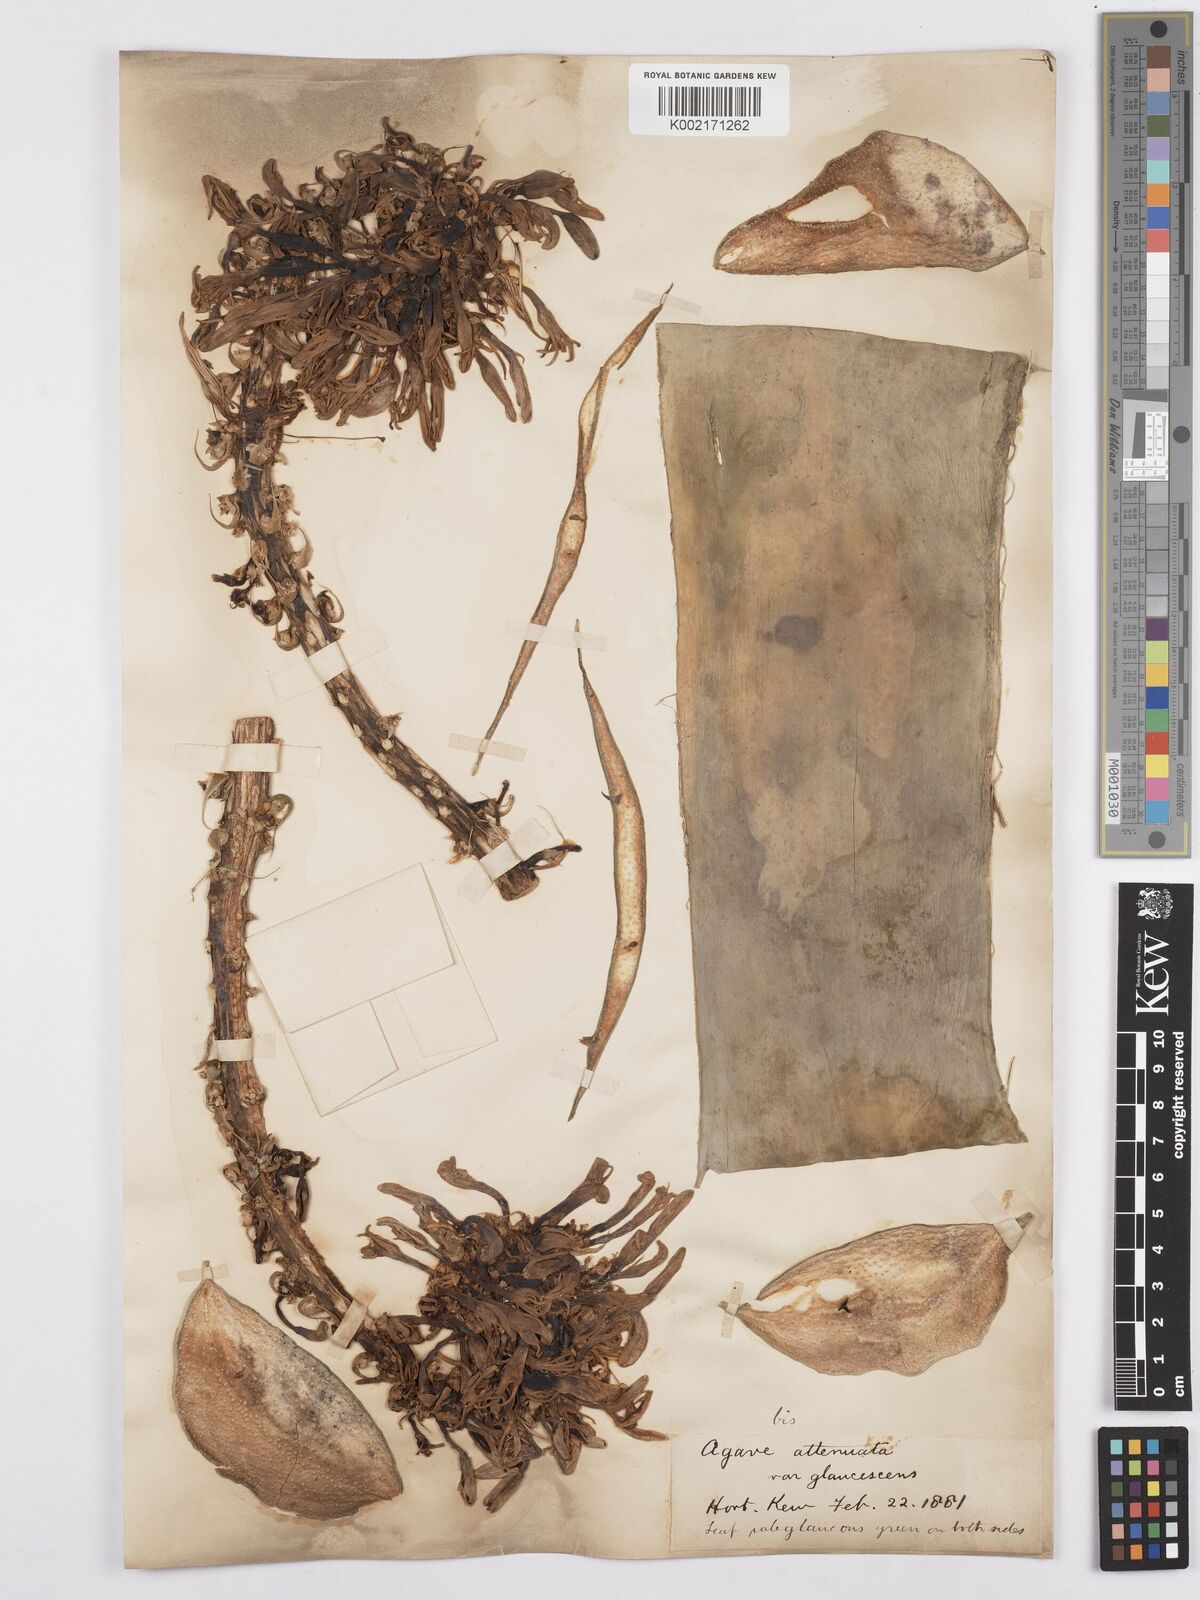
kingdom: Plantae
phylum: Tracheophyta
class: Liliopsida
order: Asparagales
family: Asparagaceae
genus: Agave
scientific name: Agave attenuata
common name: Fox tail agave
